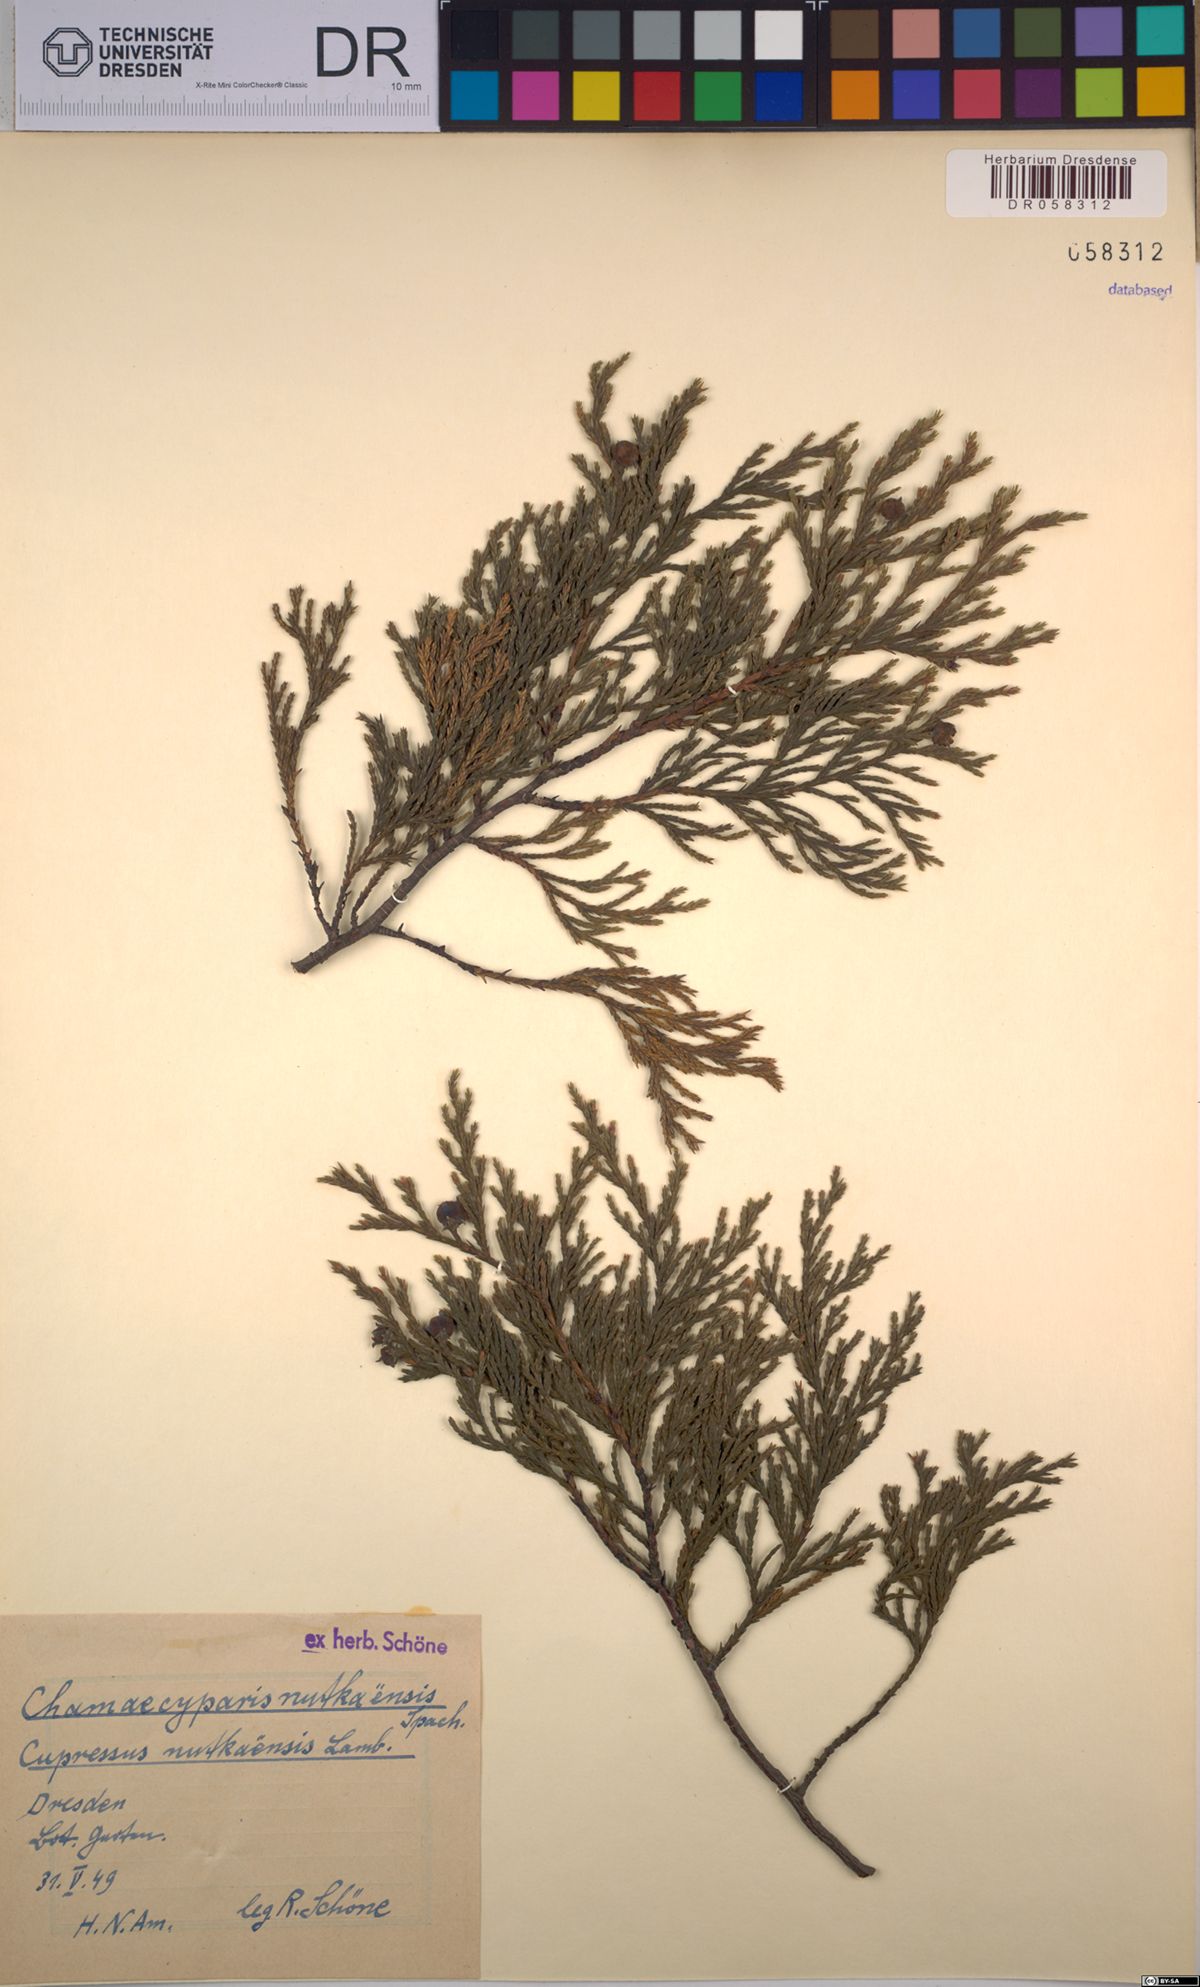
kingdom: Plantae
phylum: Tracheophyta
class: Pinopsida
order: Pinales
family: Cupressaceae
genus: Xanthocyparis
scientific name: Xanthocyparis nootkatensis
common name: Nootka cypress
